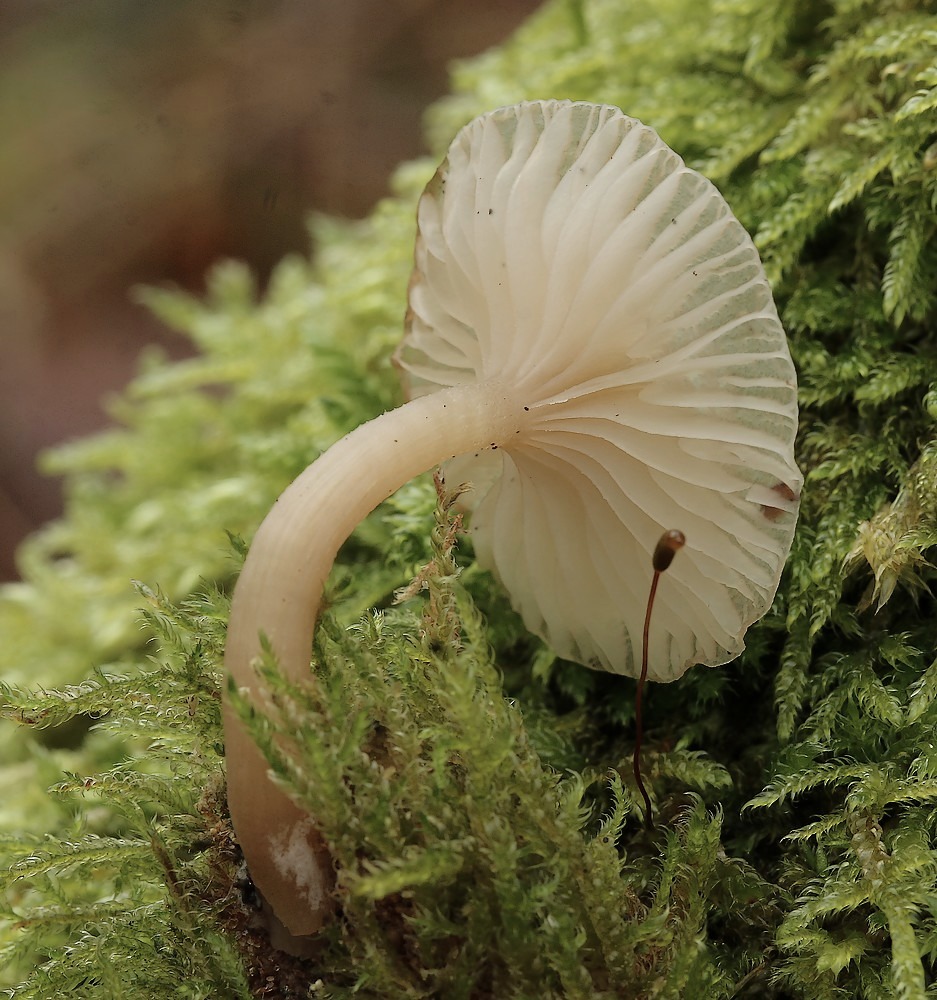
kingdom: Fungi
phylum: Basidiomycota
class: Agaricomycetes
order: Agaricales
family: Tricholomataceae
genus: Clitocybe
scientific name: Clitocybe fragrans
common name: vellugtende tragthat
